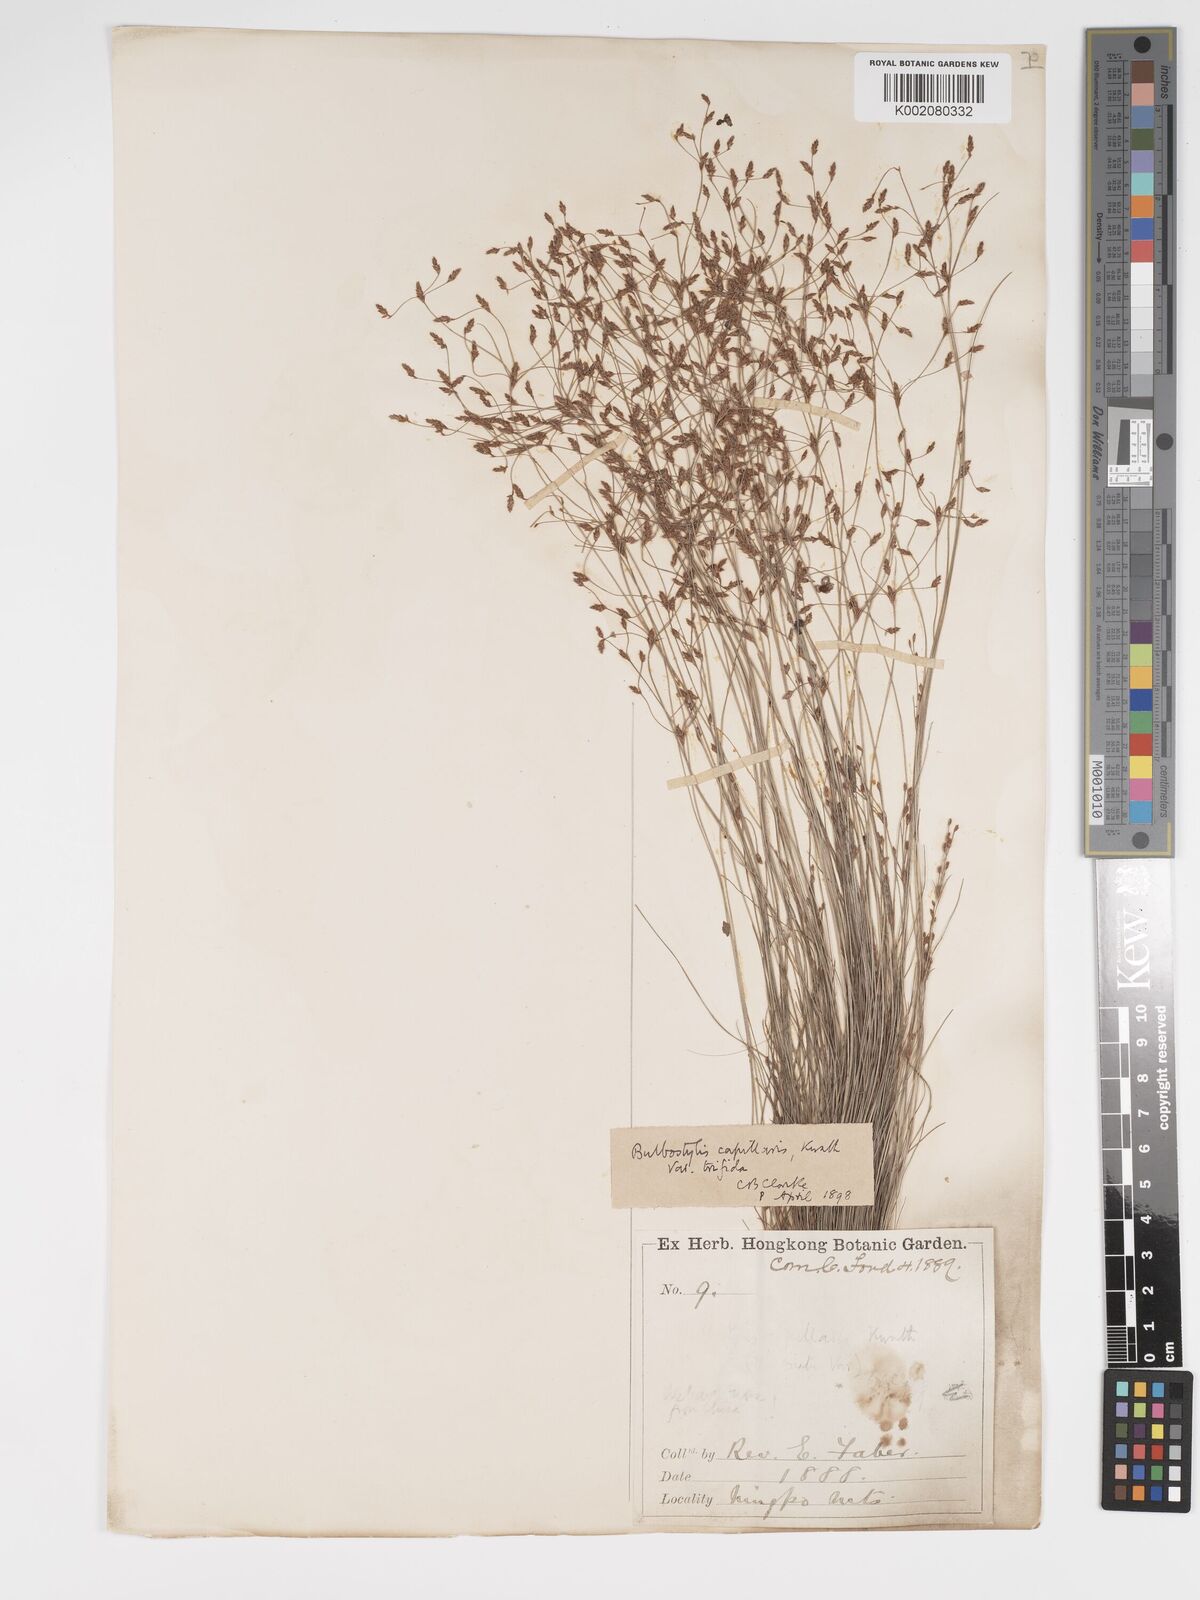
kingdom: Plantae
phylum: Tracheophyta
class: Liliopsida
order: Poales
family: Cyperaceae
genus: Bulbostylis
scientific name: Bulbostylis capillaris
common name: Densetuft hairsedge
